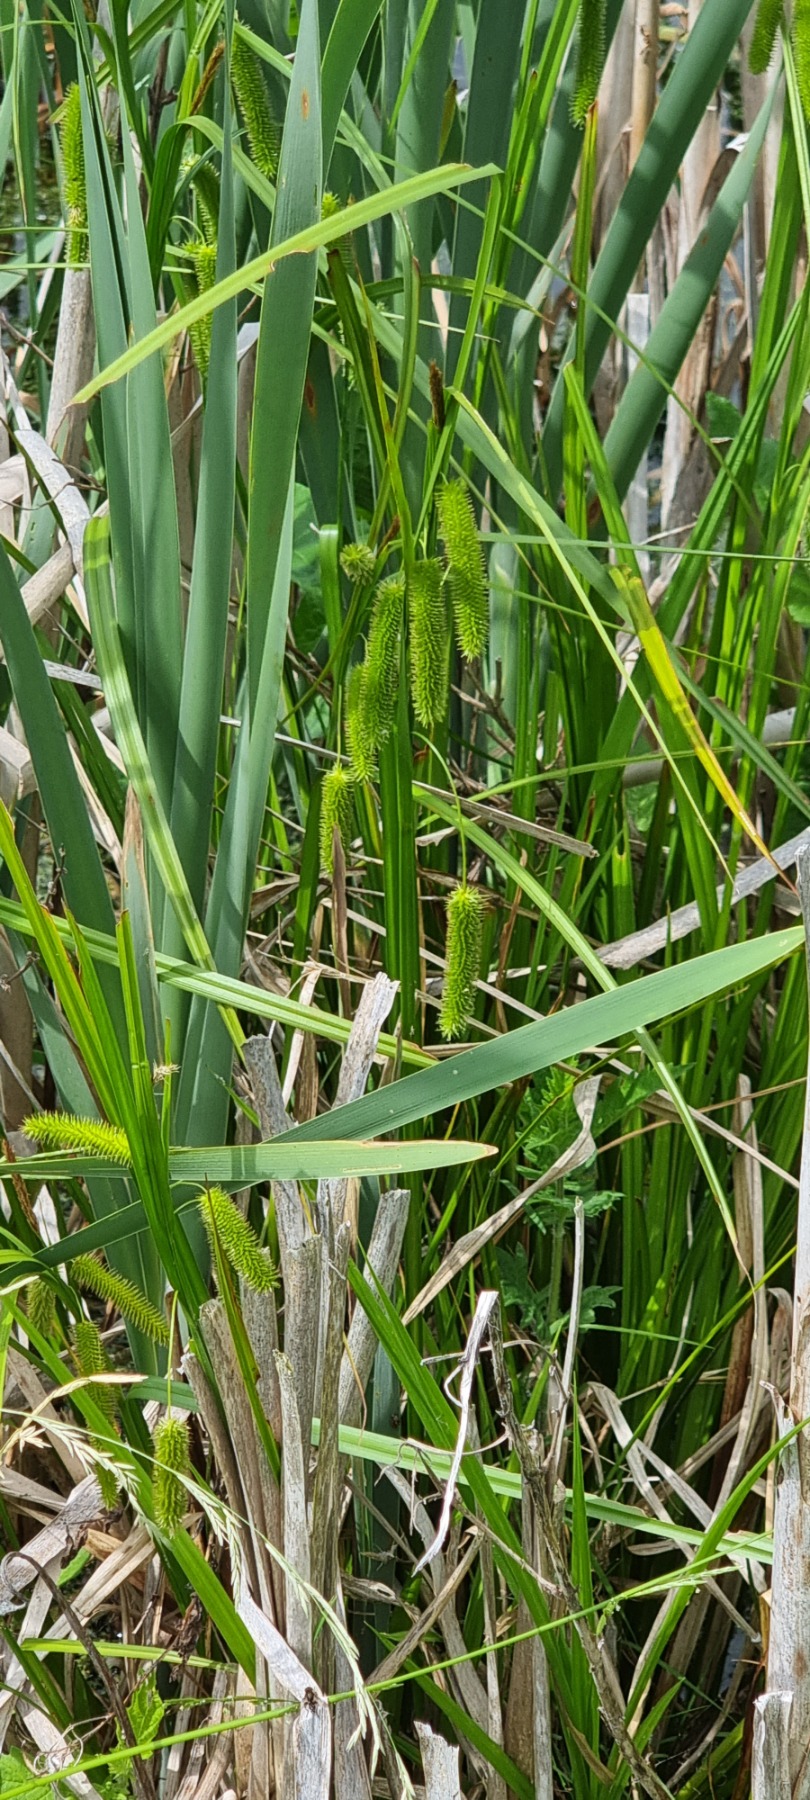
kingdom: Plantae
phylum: Tracheophyta
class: Liliopsida
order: Poales
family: Cyperaceae
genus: Carex
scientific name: Carex pseudocyperus
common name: Knippe-star
